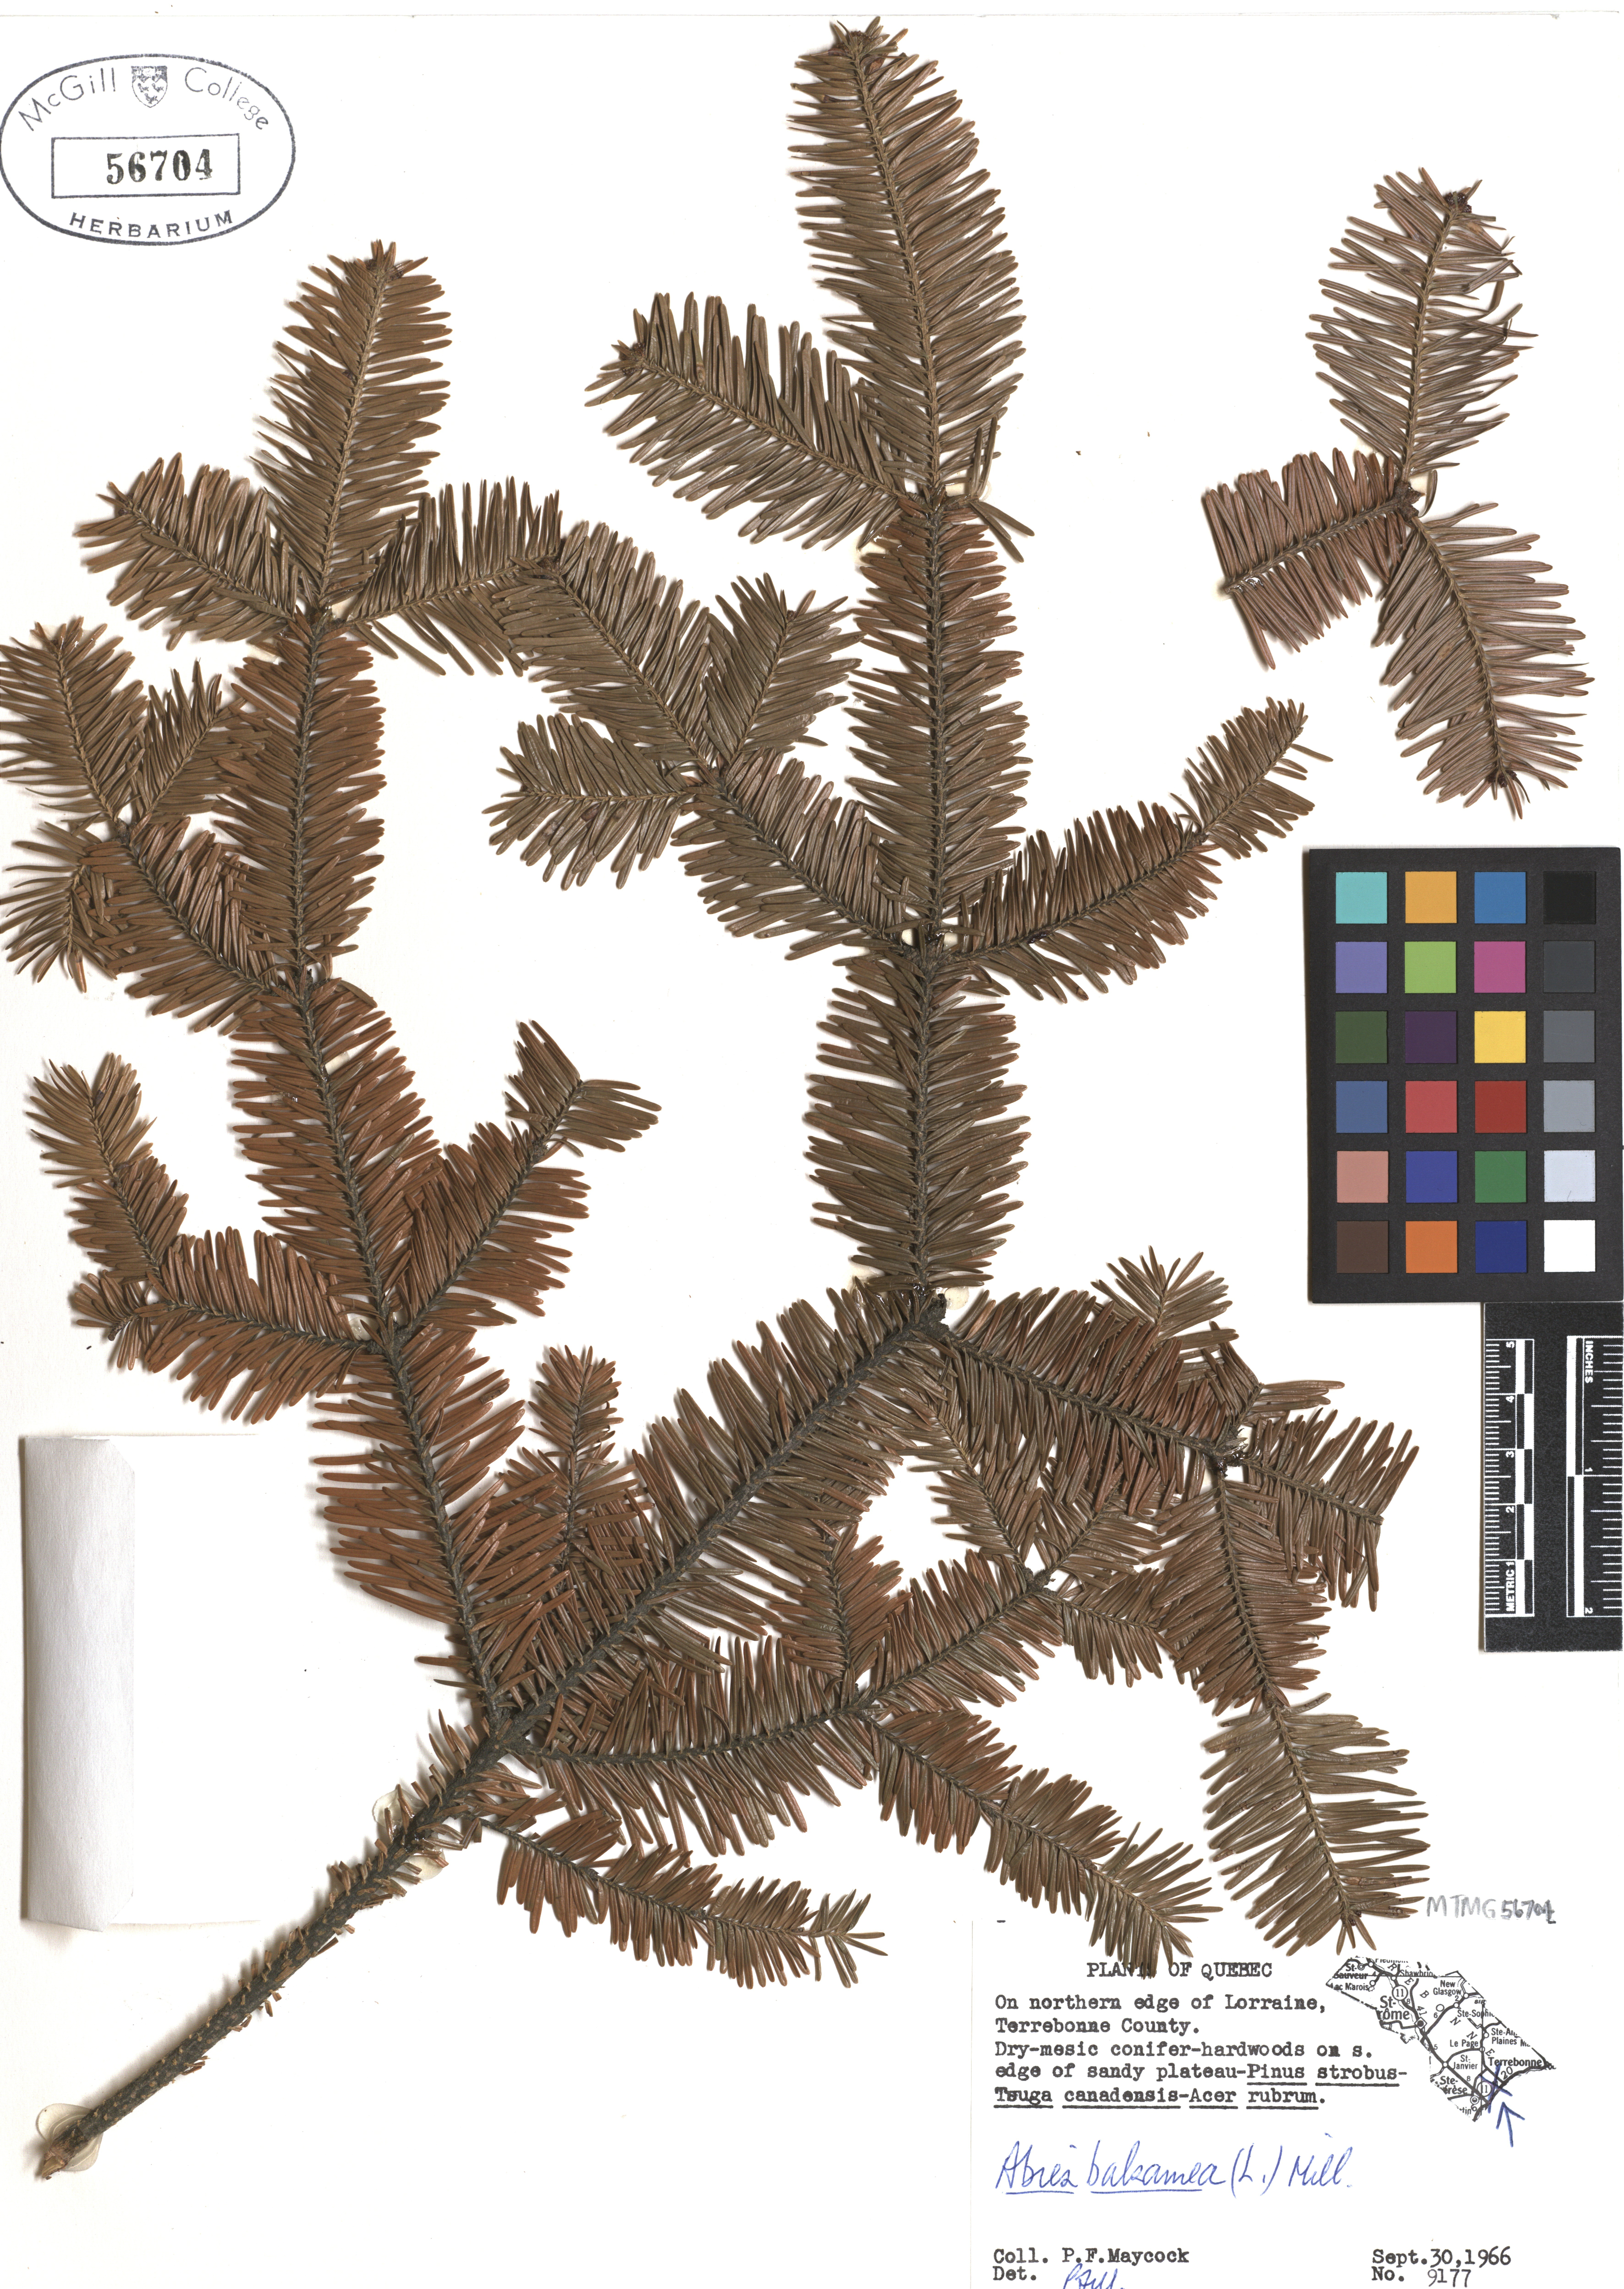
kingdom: Plantae
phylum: Tracheophyta
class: Pinopsida
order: Pinales
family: Pinaceae
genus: Abies
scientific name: Abies balsamea
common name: Balsam fir
